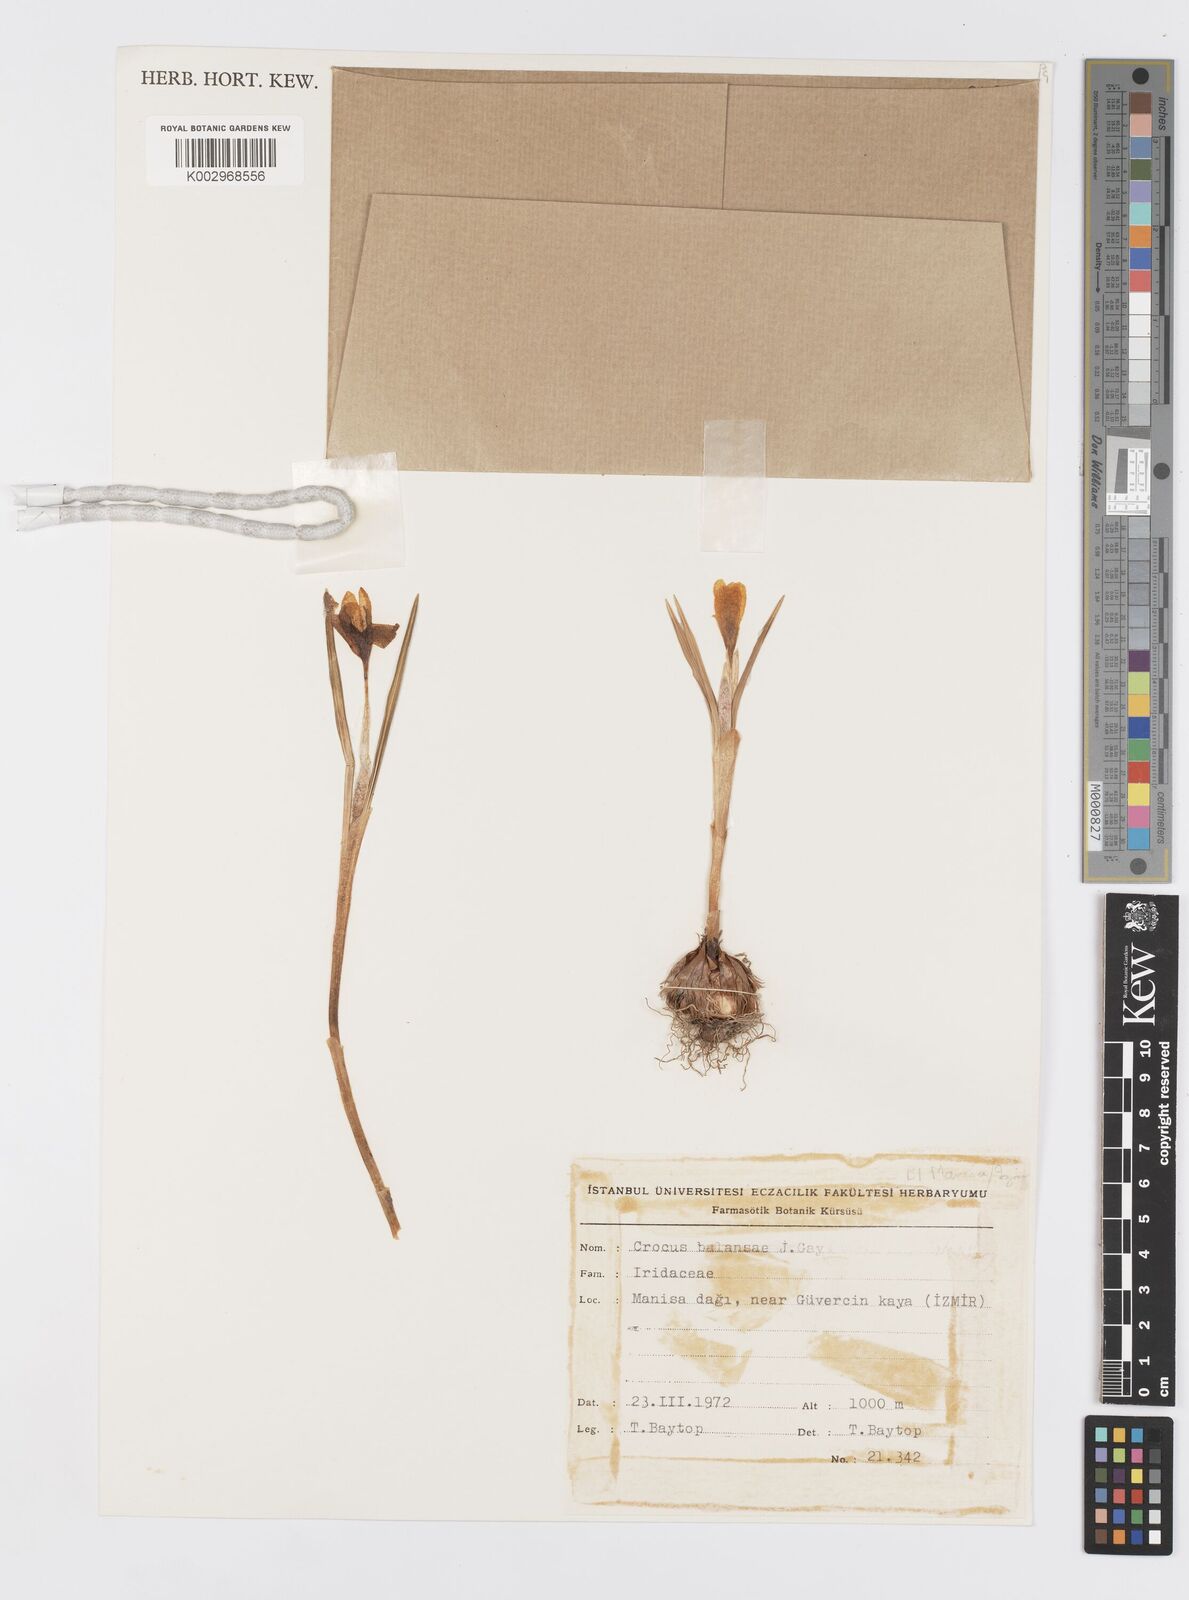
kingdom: Plantae
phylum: Tracheophyta
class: Liliopsida
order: Asparagales
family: Iridaceae
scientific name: Iridaceae
